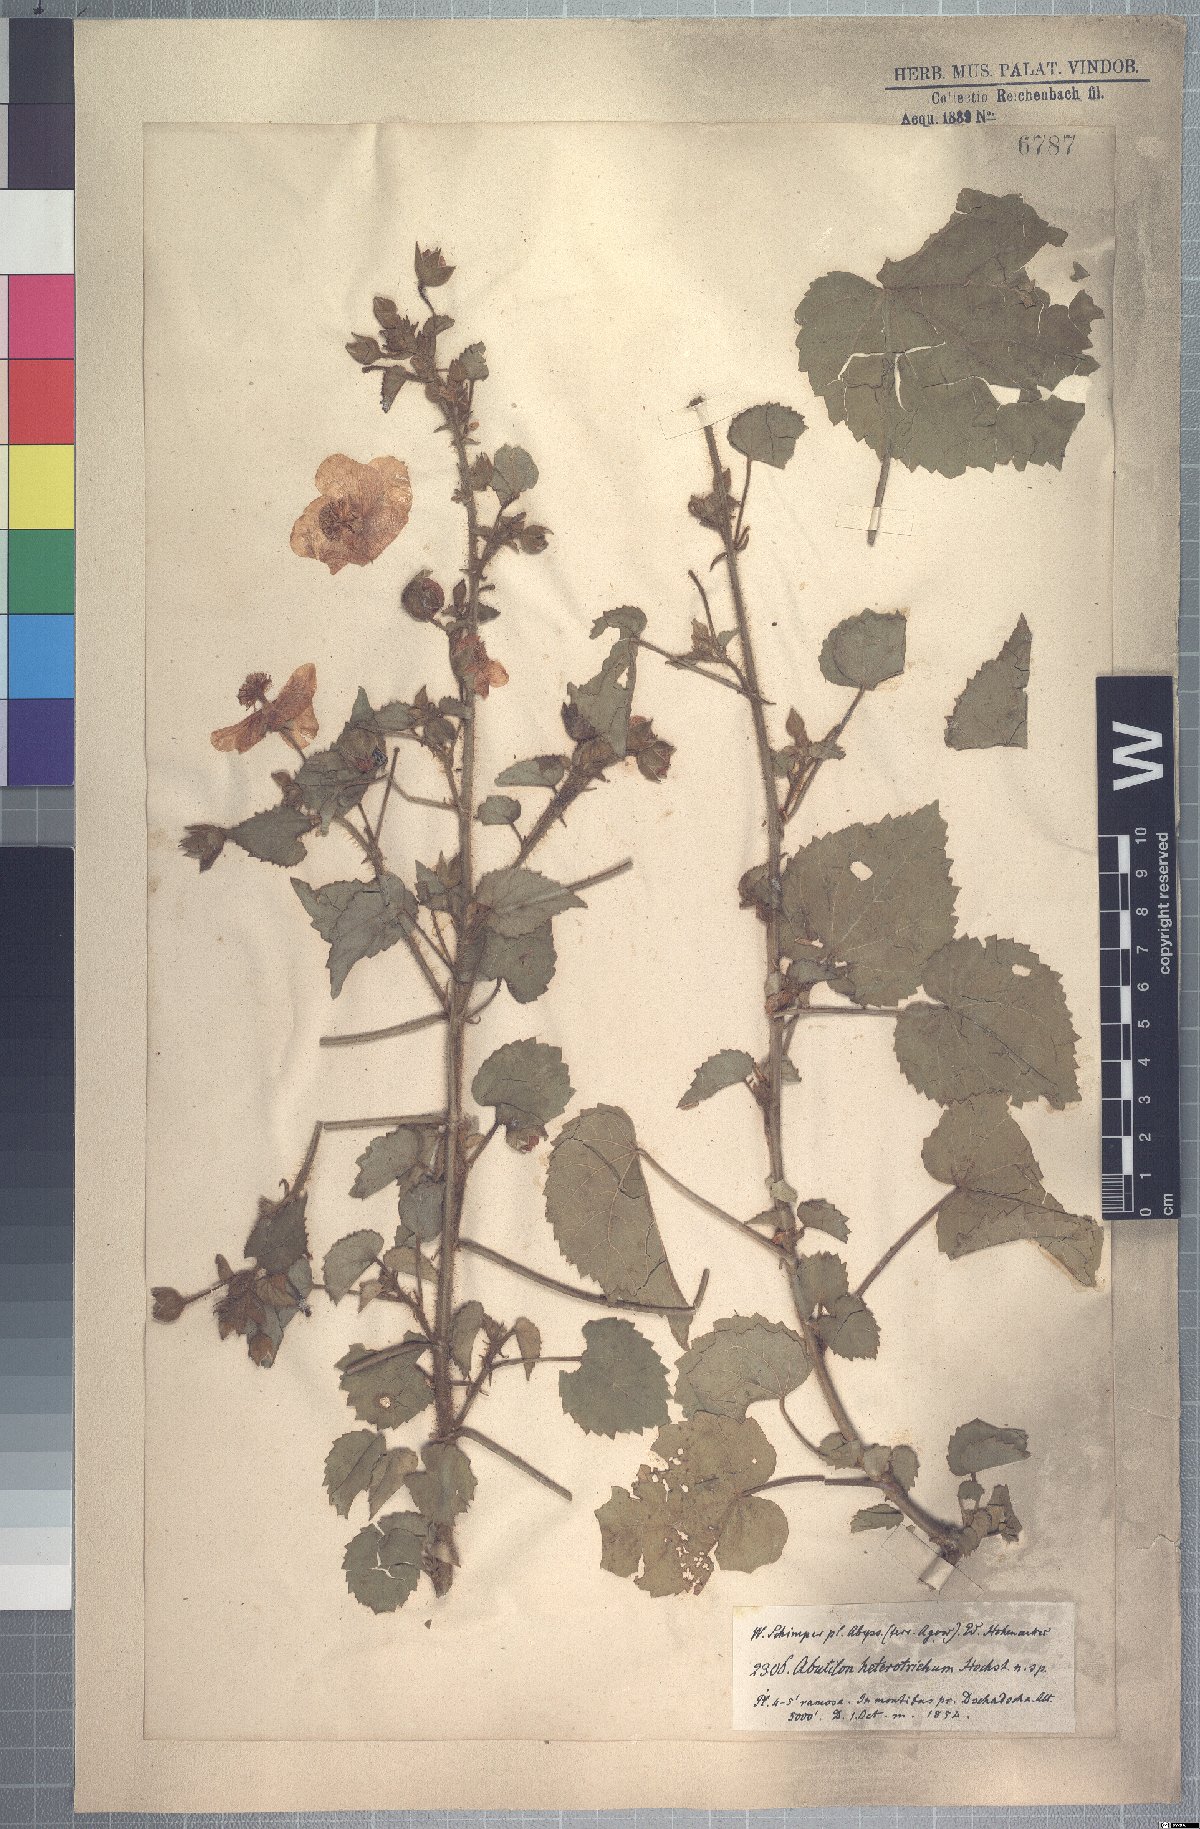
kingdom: Plantae
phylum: Tracheophyta
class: Magnoliopsida
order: Malvales
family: Malvaceae
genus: Abutilon
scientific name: Abutilon hirtum
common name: Florida keys indian mallow
